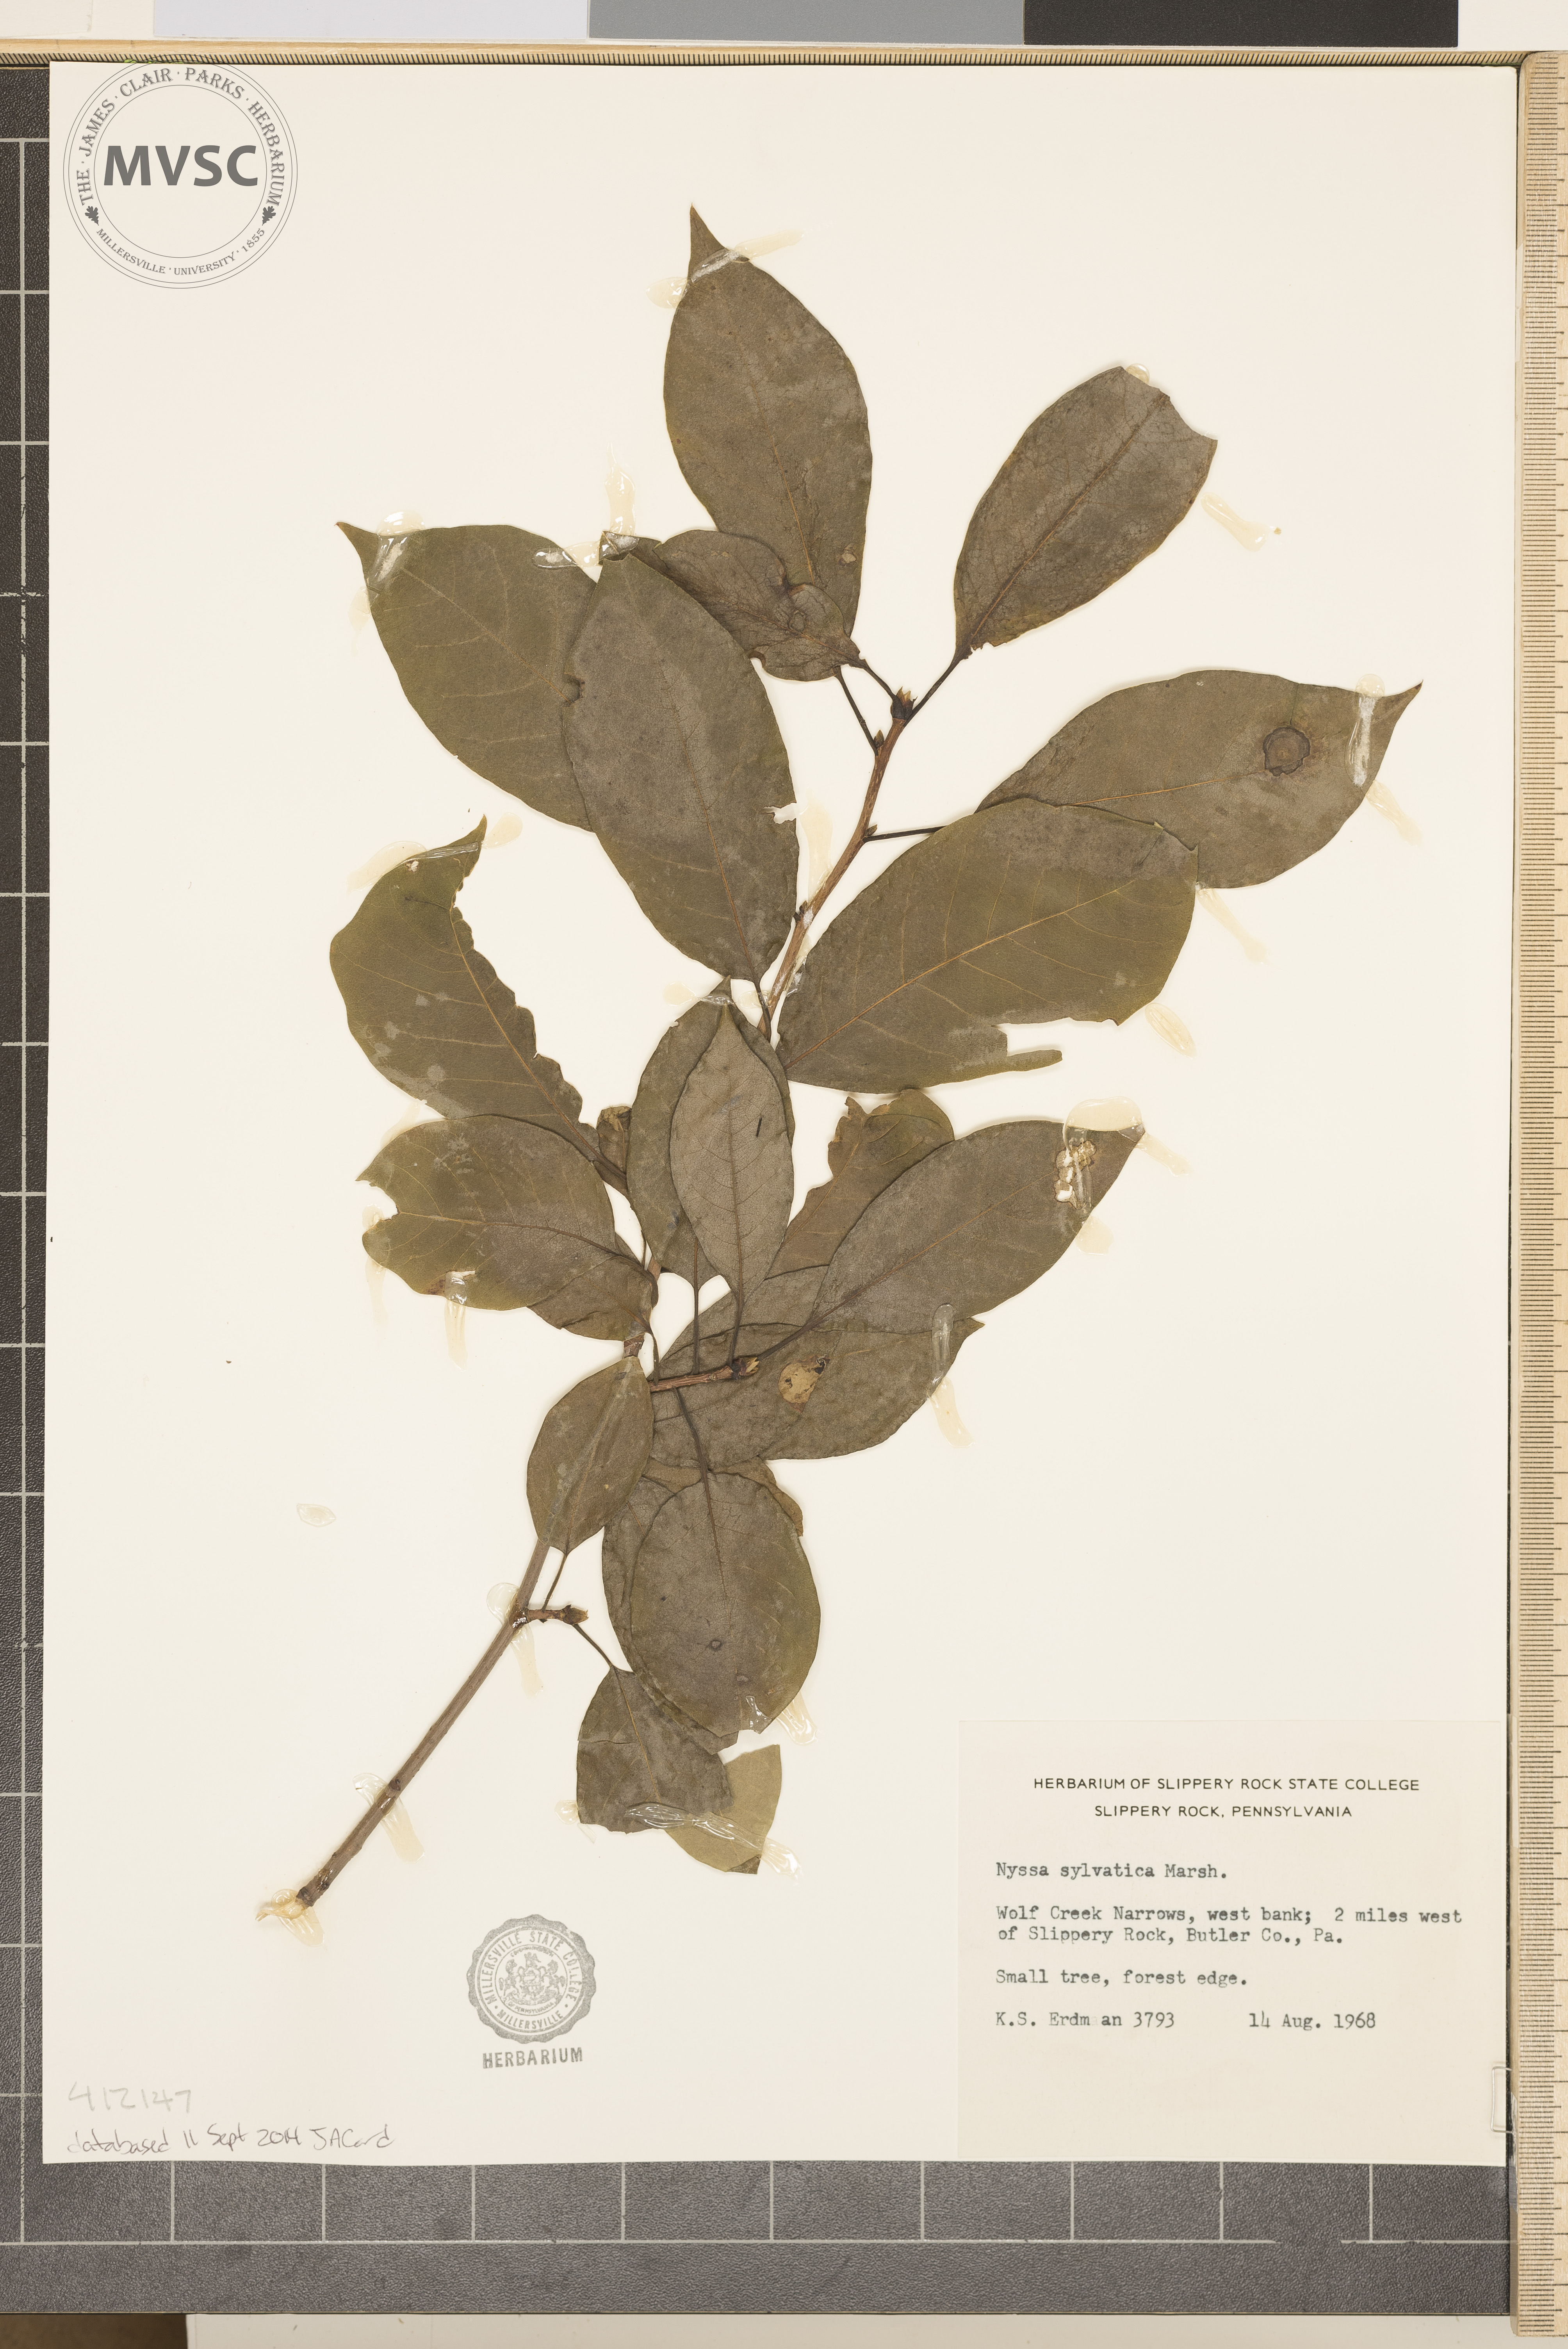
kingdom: Plantae
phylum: Tracheophyta
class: Magnoliopsida
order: Cornales
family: Nyssaceae
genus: Nyssa
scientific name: Nyssa sylvatica
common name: Black tupelo
